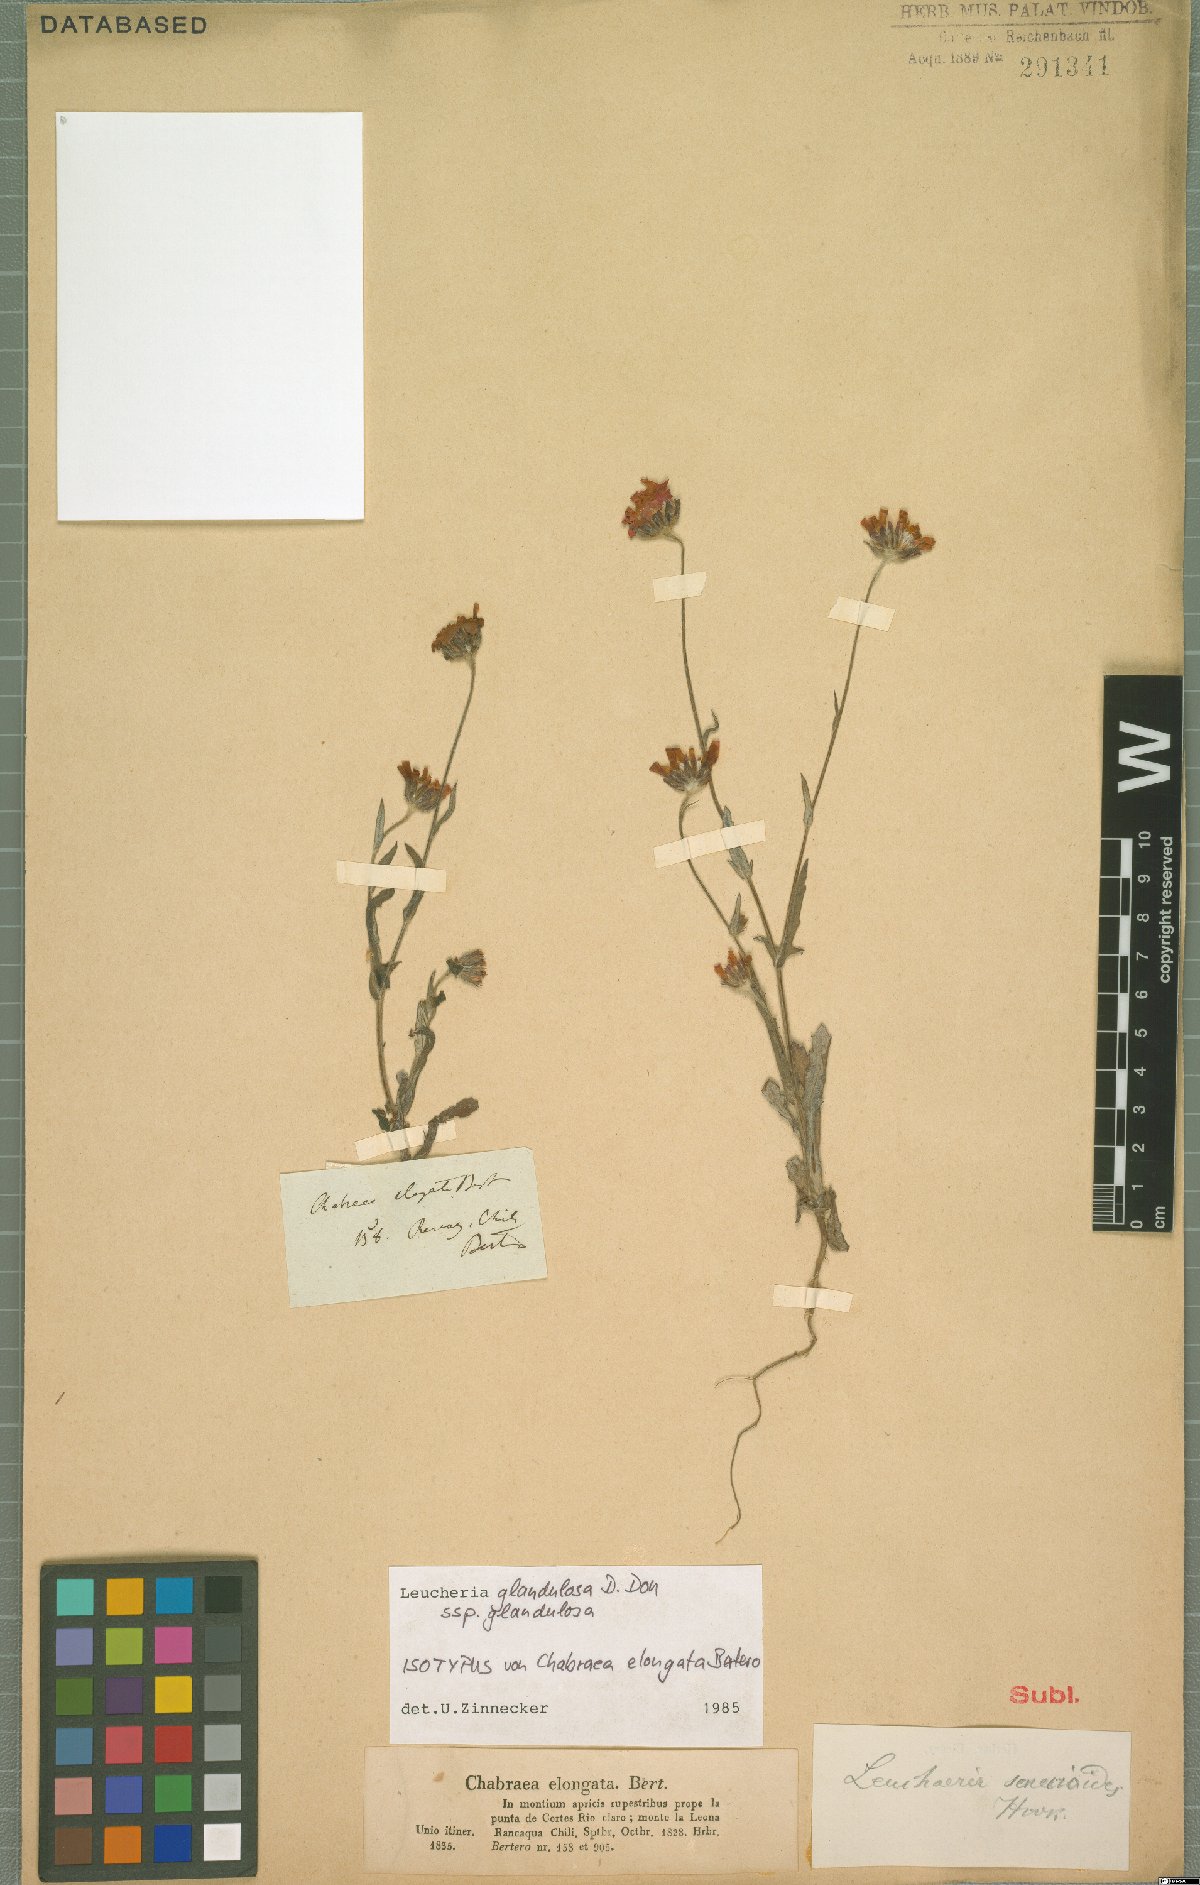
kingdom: Plantae
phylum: Tracheophyta
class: Magnoliopsida
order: Asterales
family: Asteraceae
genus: Leucheria
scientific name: Leucheria glandulosa
